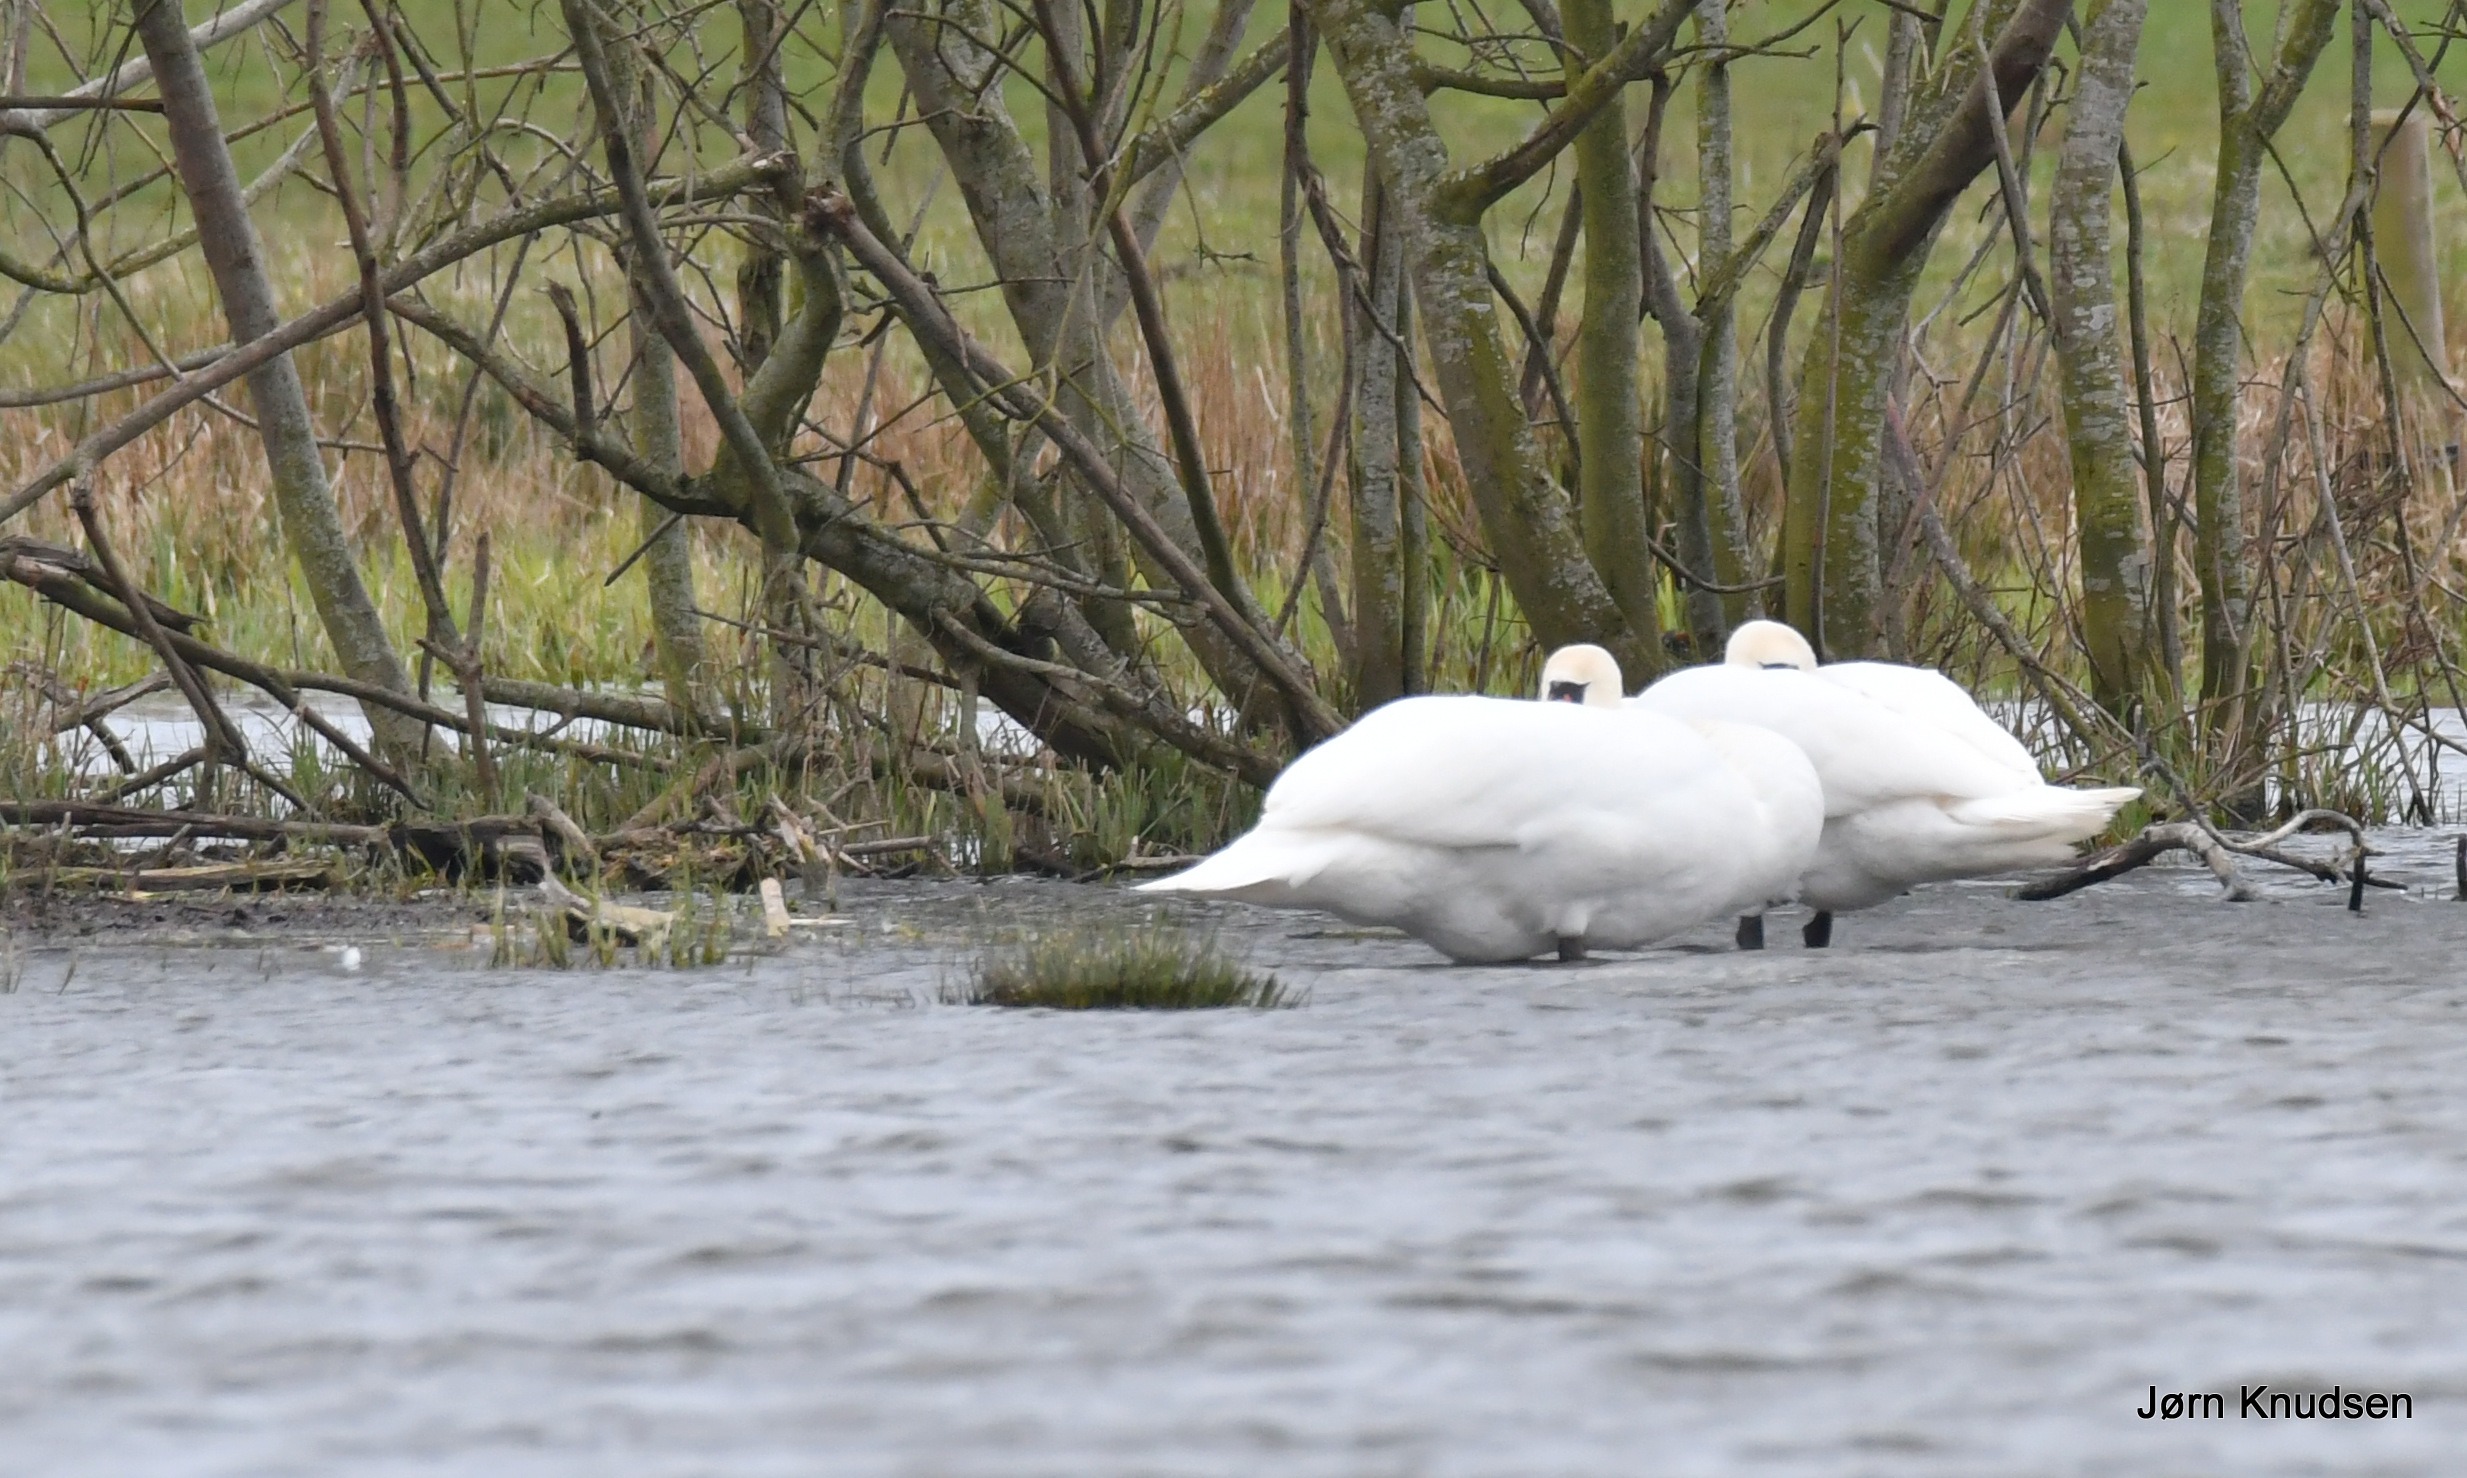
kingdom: Animalia
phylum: Chordata
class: Aves
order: Anseriformes
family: Anatidae
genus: Cygnus
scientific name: Cygnus olor
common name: Knopsvane
